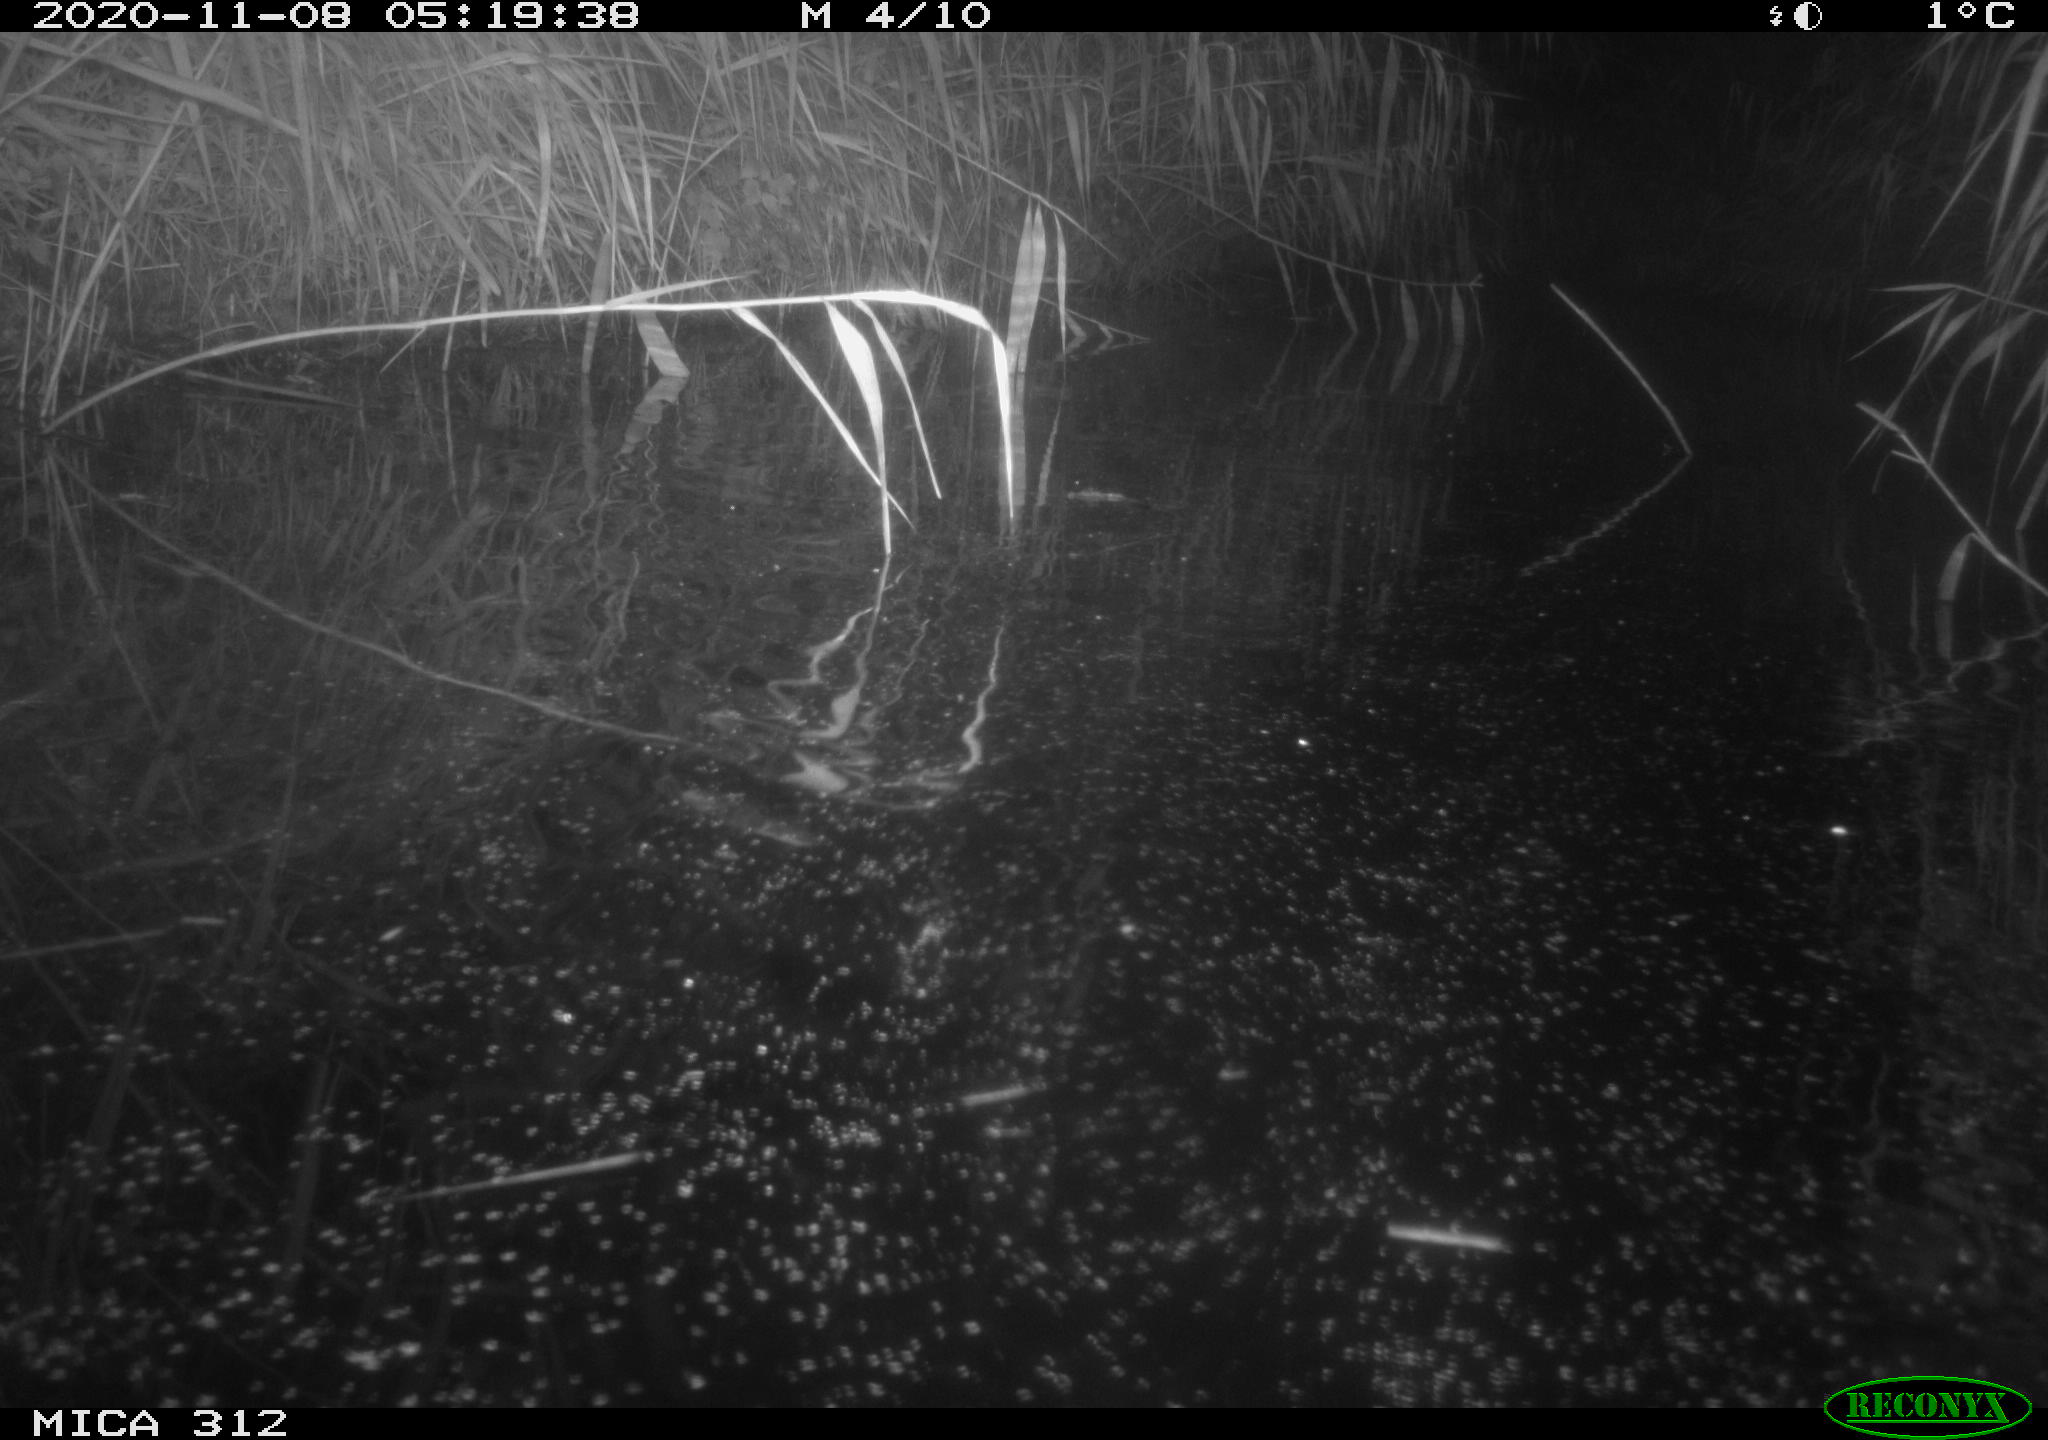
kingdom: Animalia
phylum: Chordata
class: Mammalia
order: Rodentia
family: Muridae
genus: Rattus
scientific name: Rattus norvegicus
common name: Brown rat
